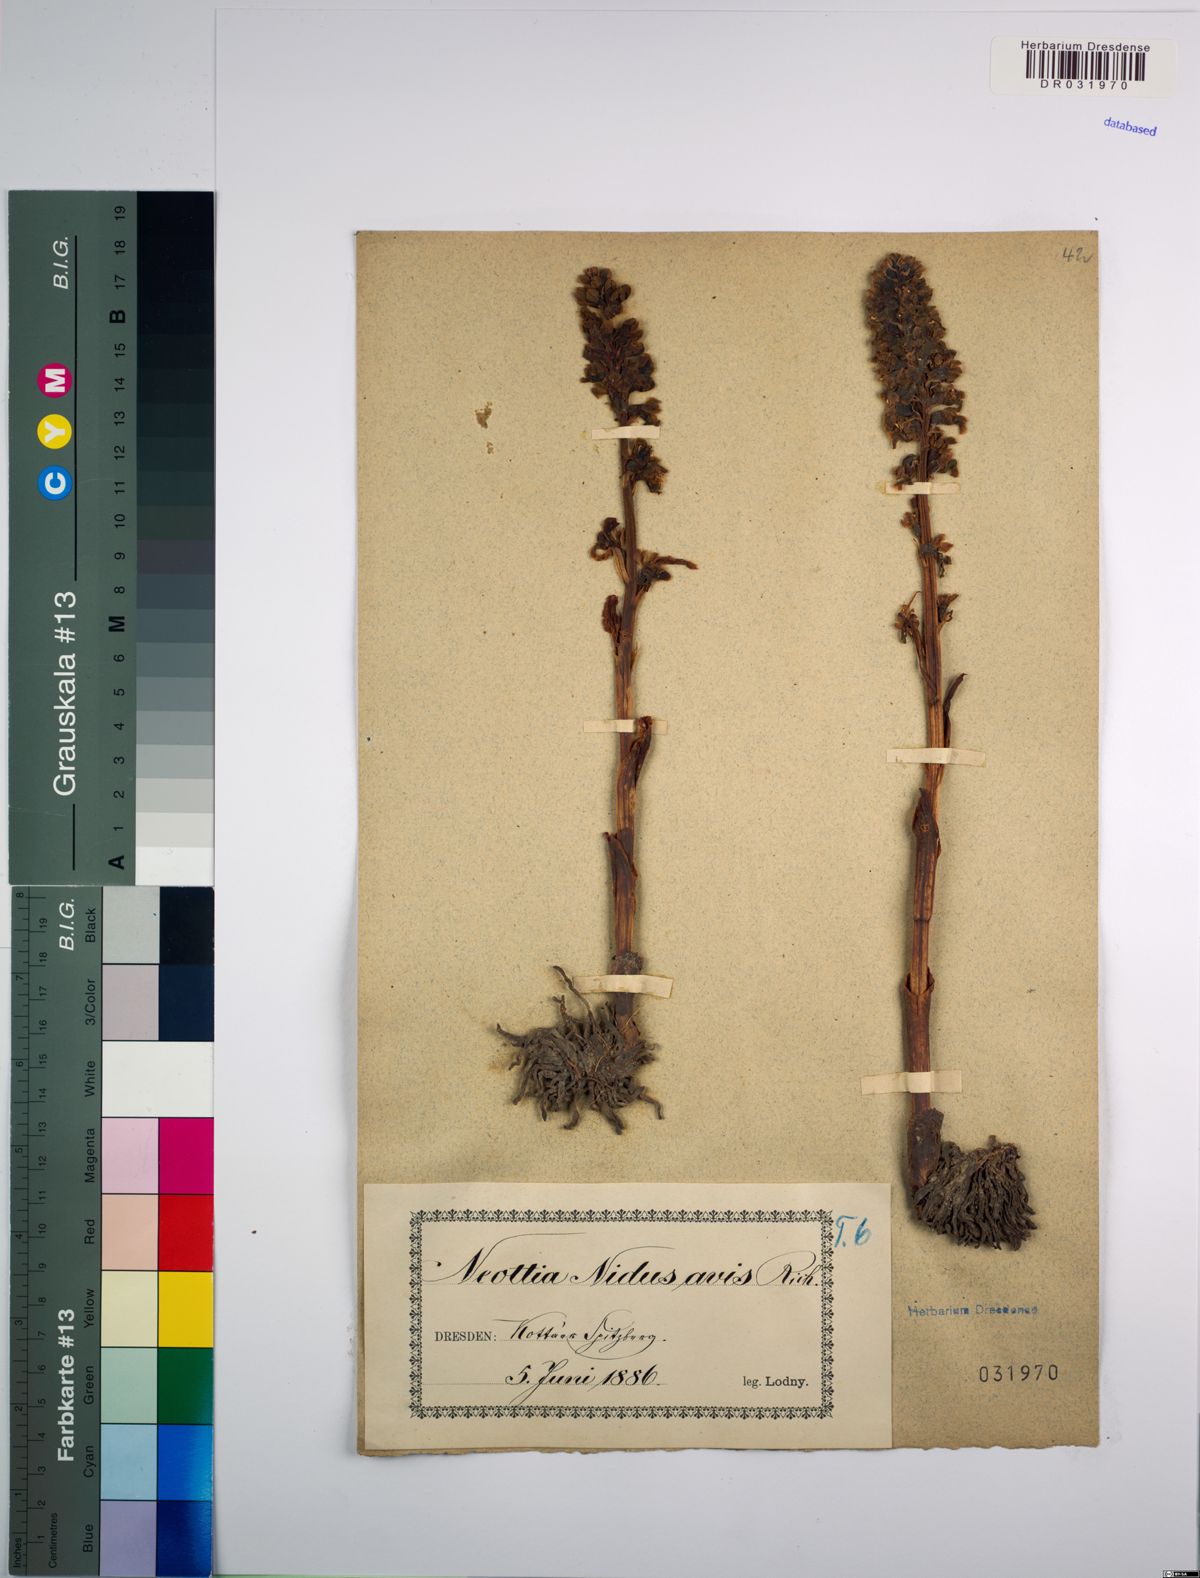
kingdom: Plantae
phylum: Tracheophyta
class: Liliopsida
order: Asparagales
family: Orchidaceae
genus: Neottia
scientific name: Neottia nidus-avis
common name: Bird's-nest orchid
